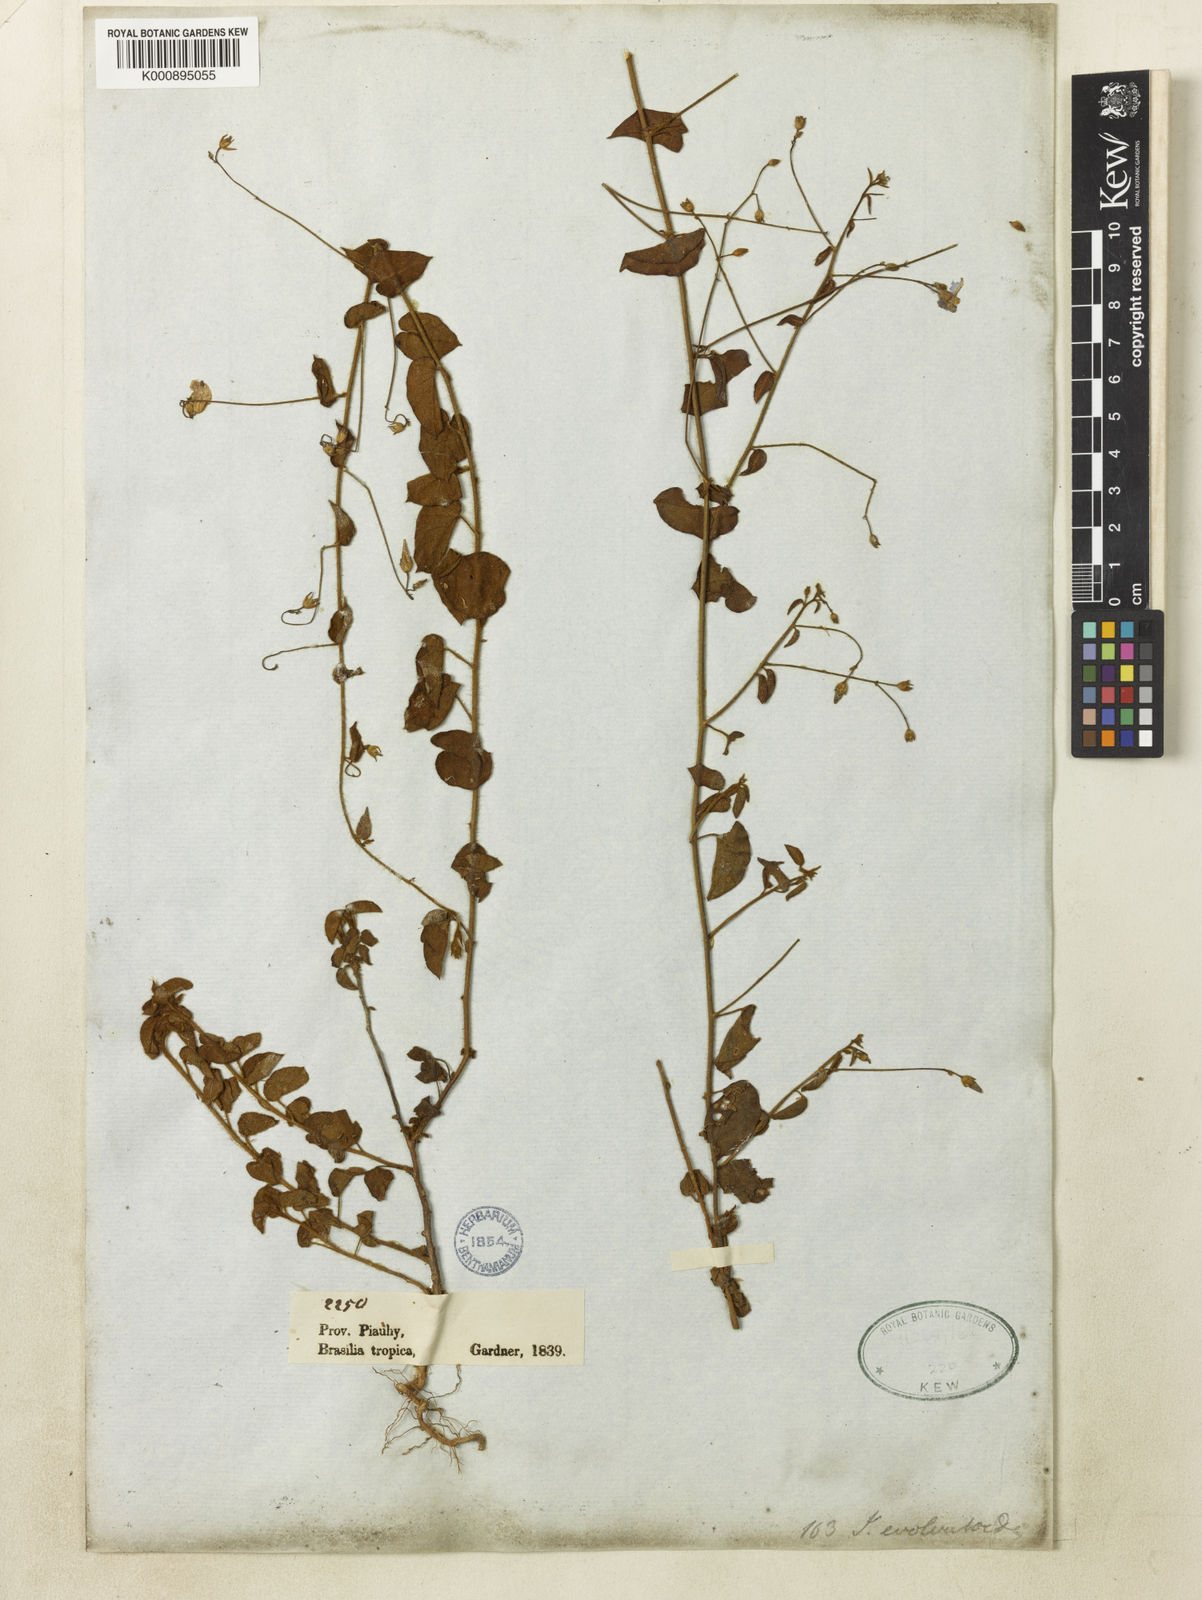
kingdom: Plantae
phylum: Tracheophyta
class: Magnoliopsida
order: Solanales
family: Convolvulaceae
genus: Jacquemontia
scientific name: Jacquemontia evolvuloides
